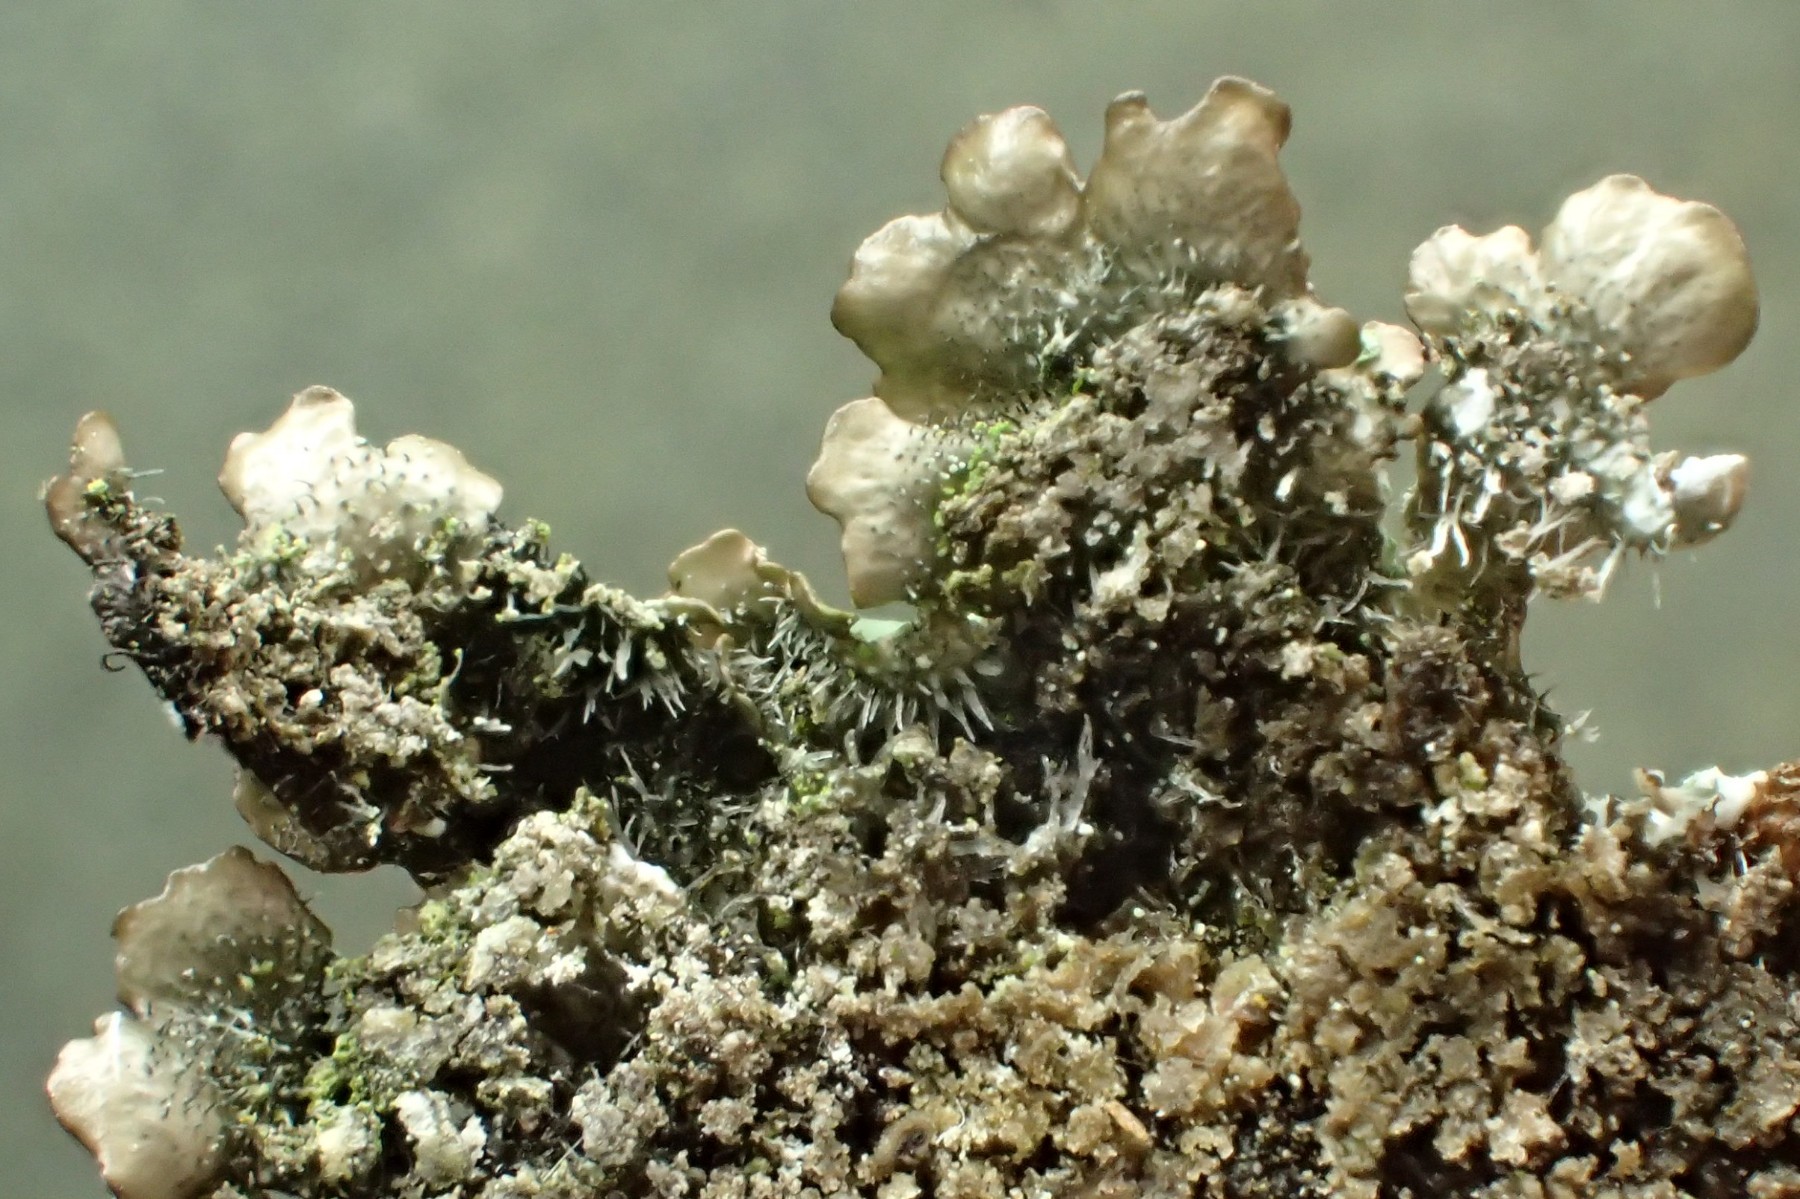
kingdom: Fungi
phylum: Ascomycota
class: Lecanoromycetes
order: Lecanorales
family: Parmeliaceae
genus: Punctelia
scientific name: Punctelia subrudecta
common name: punkt-skållav
